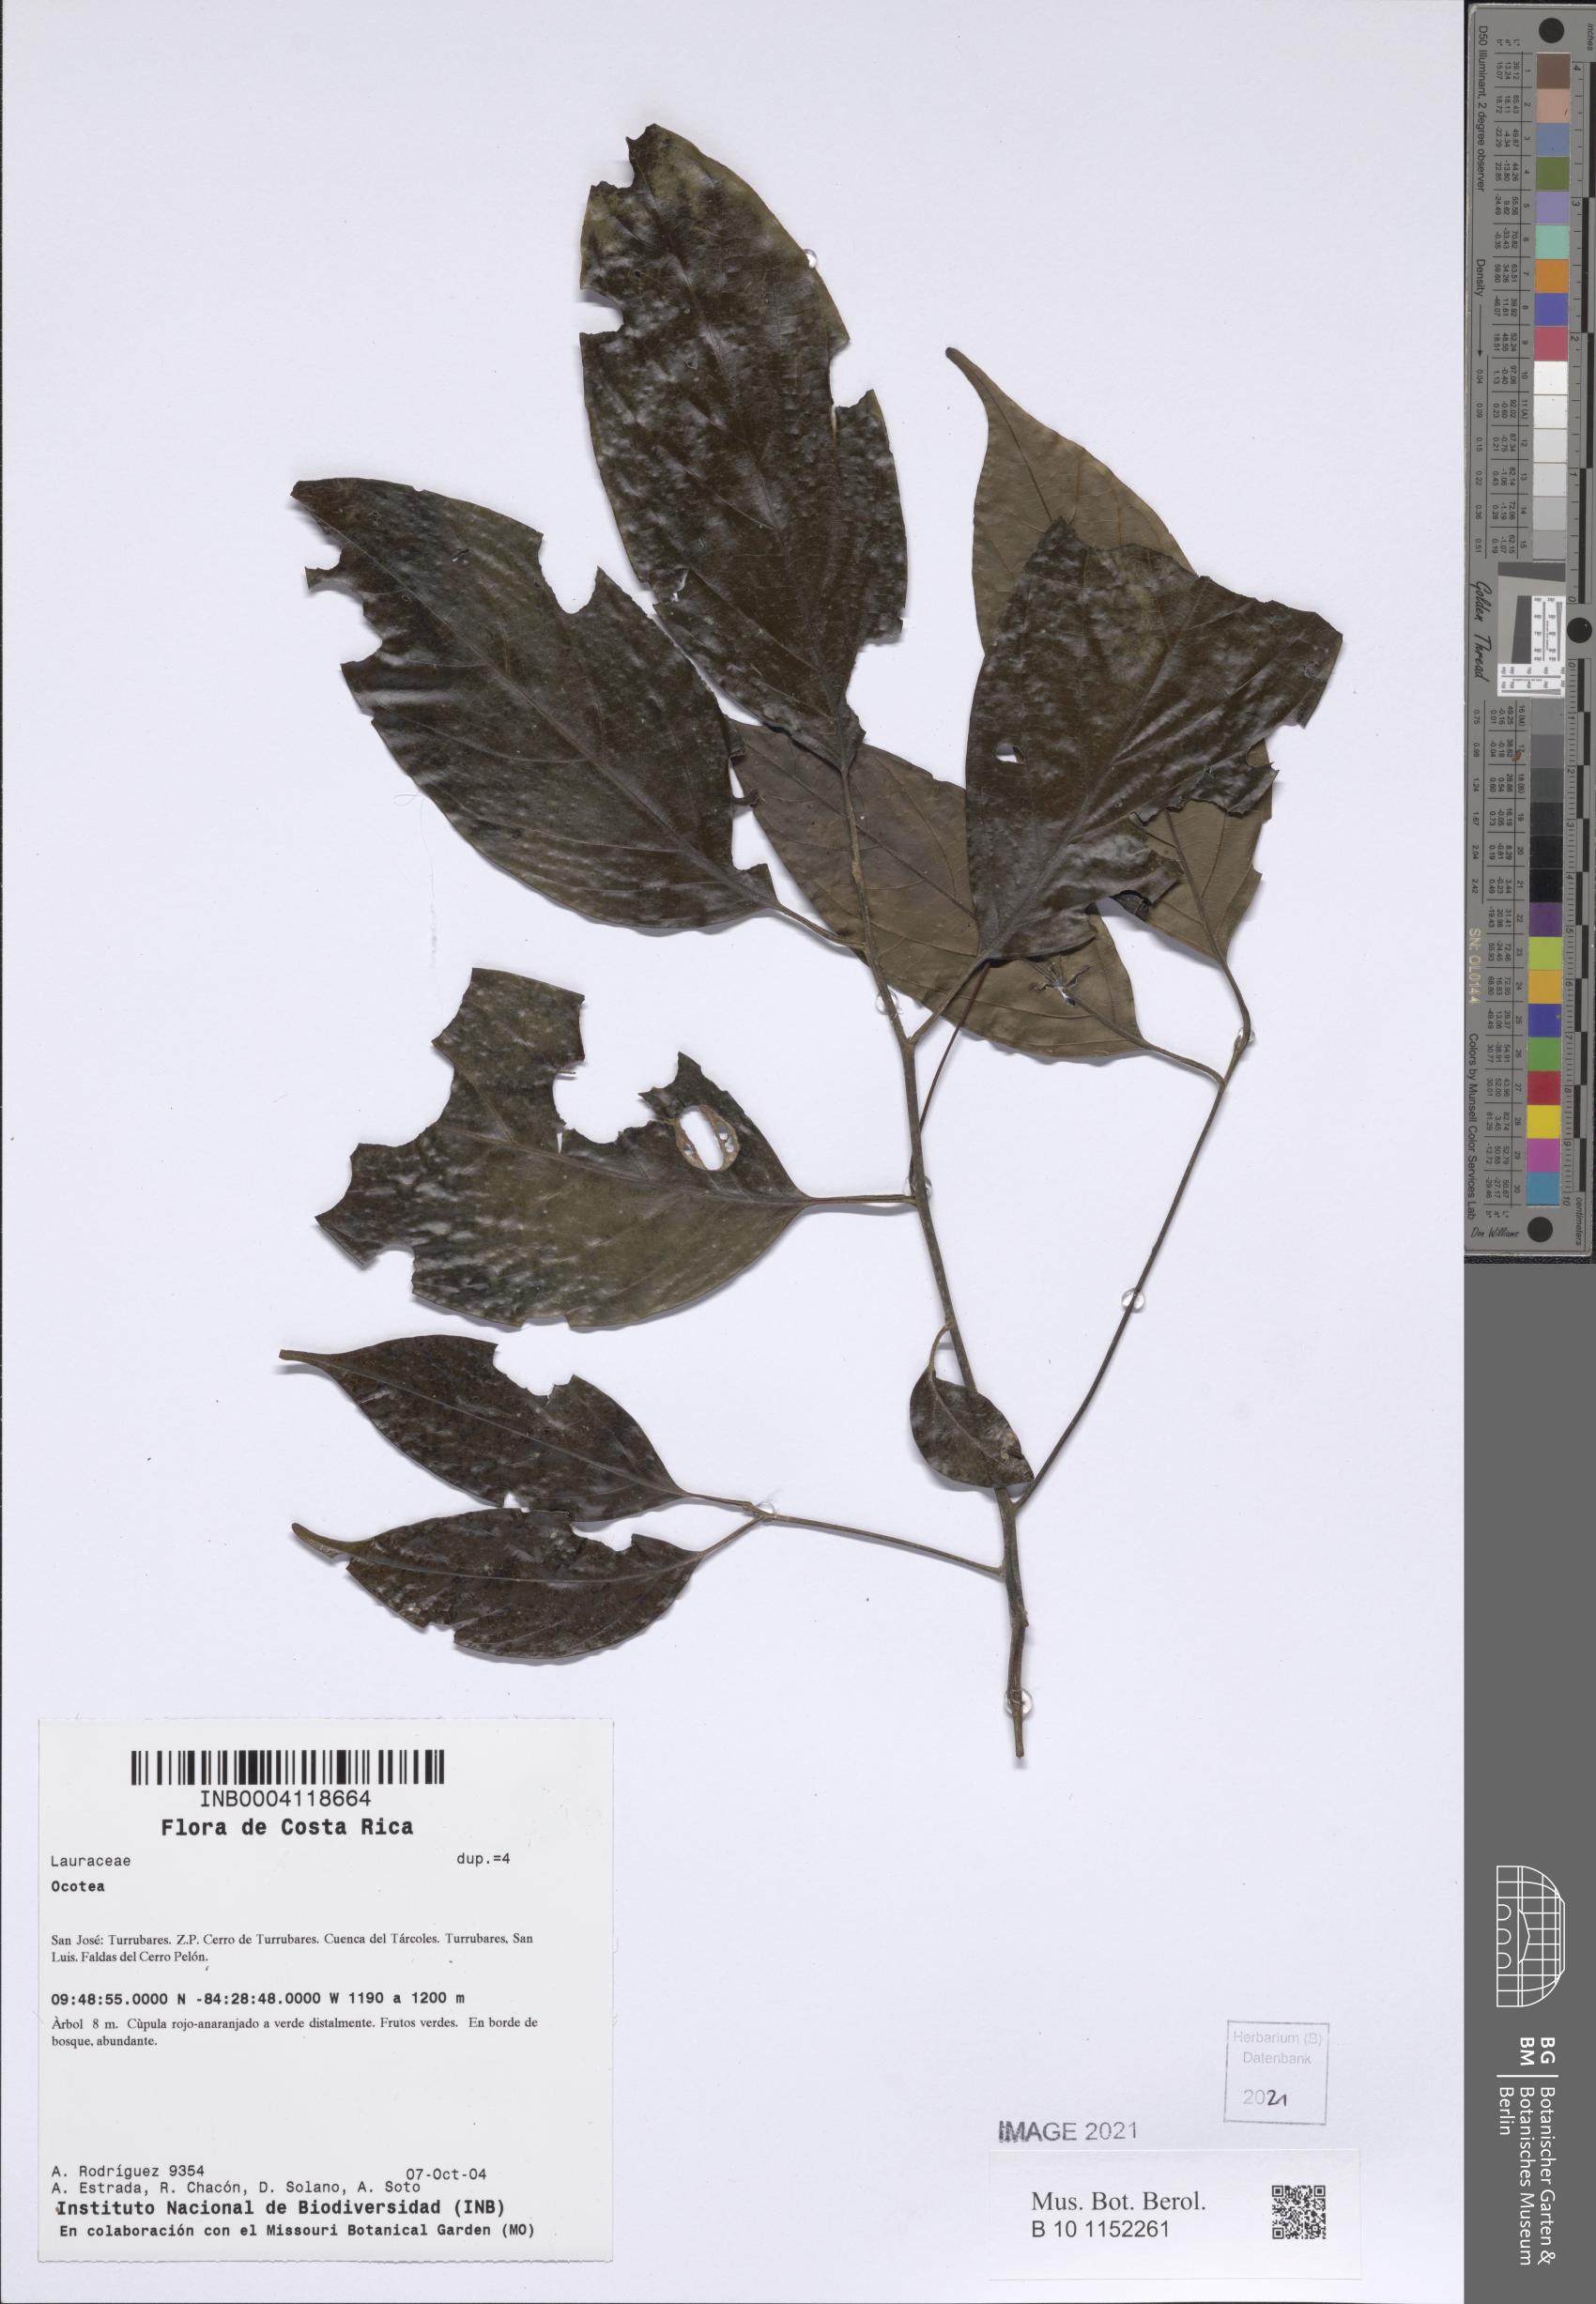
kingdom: Plantae
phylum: Tracheophyta
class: Magnoliopsida
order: Laurales
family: Lauraceae
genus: Ocotea
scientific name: Ocotea
